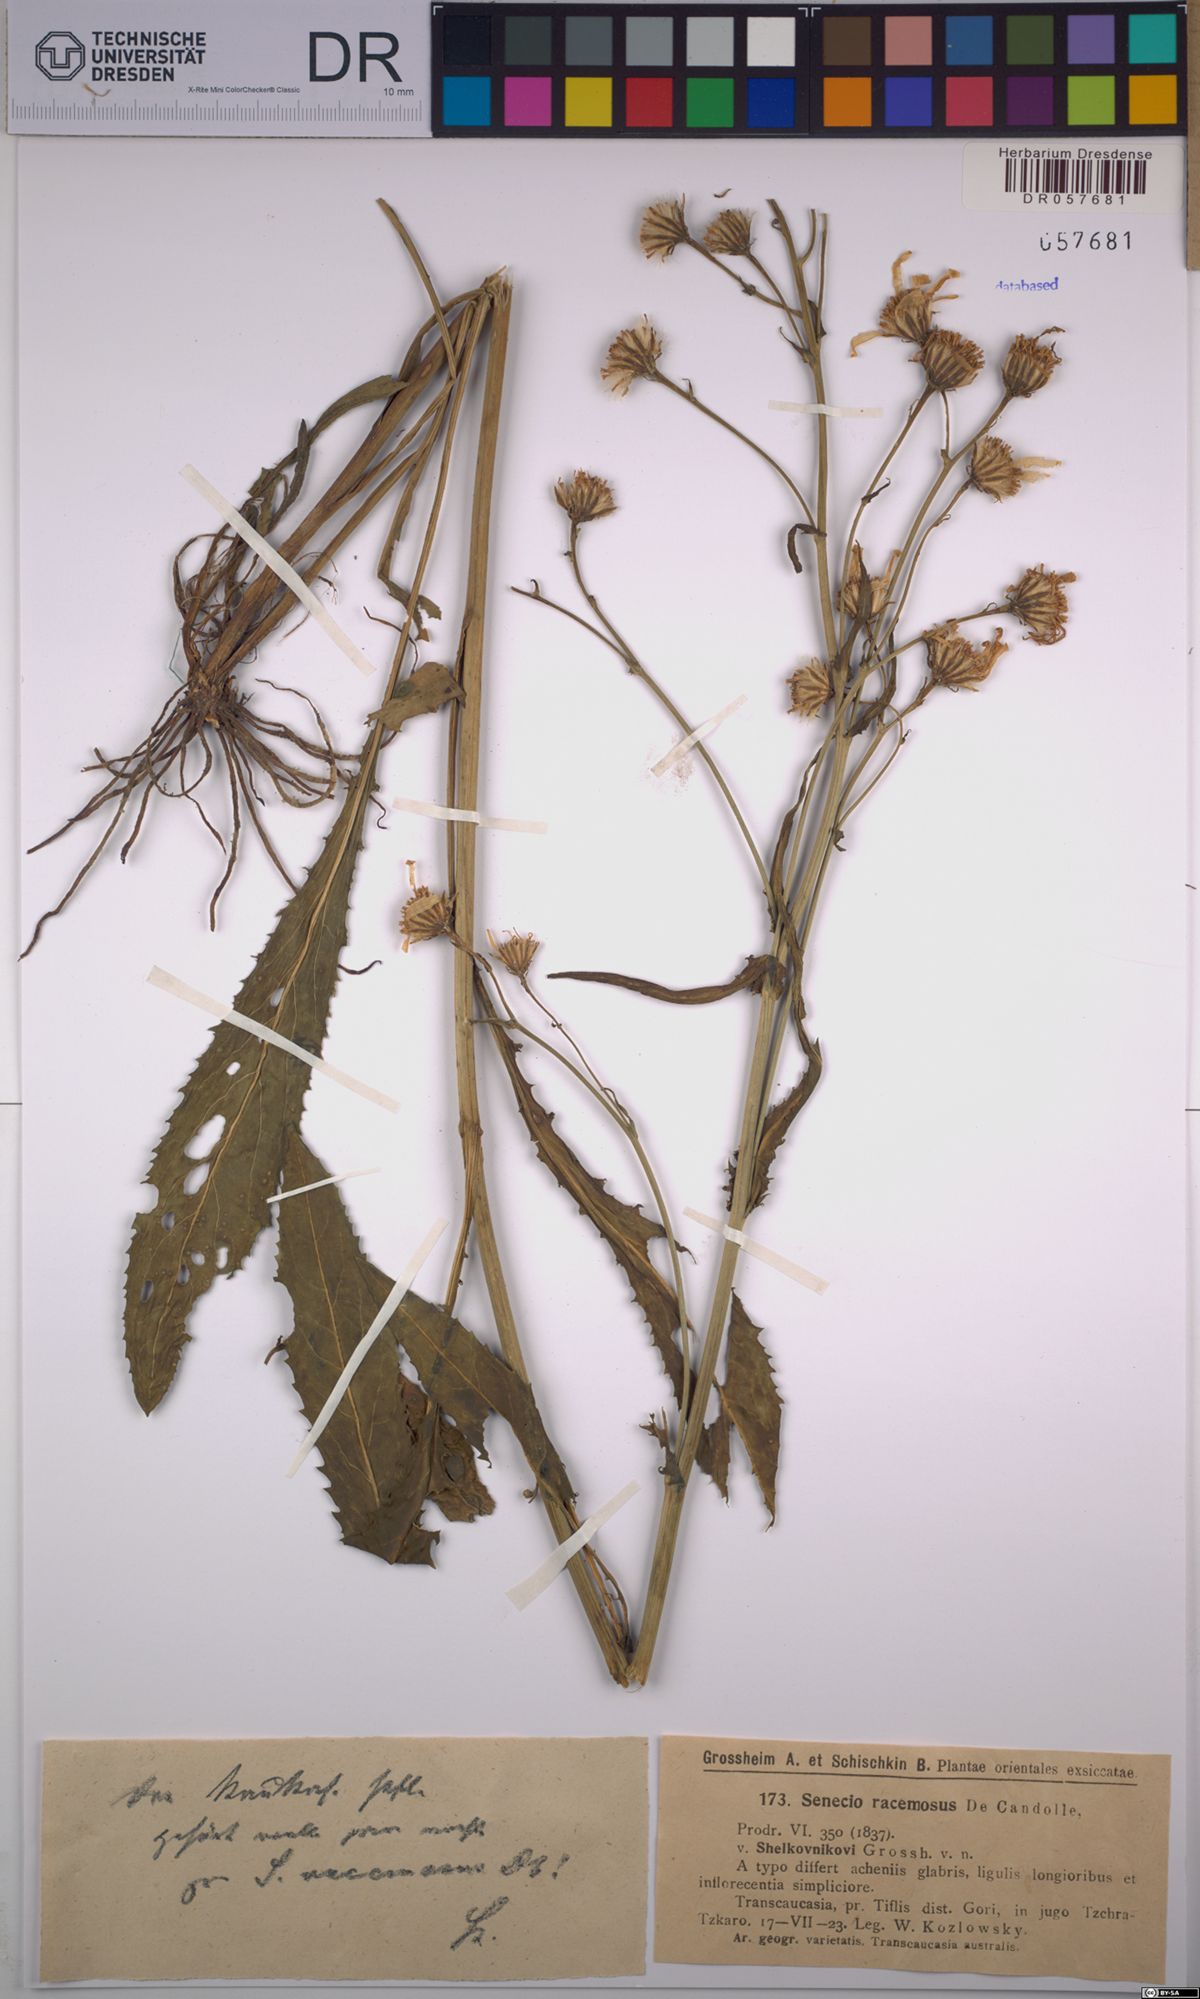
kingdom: Plantae
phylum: Tracheophyta
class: Magnoliopsida
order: Asterales
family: Asteraceae
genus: Jacobaea
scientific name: Jacobaea racemosa
